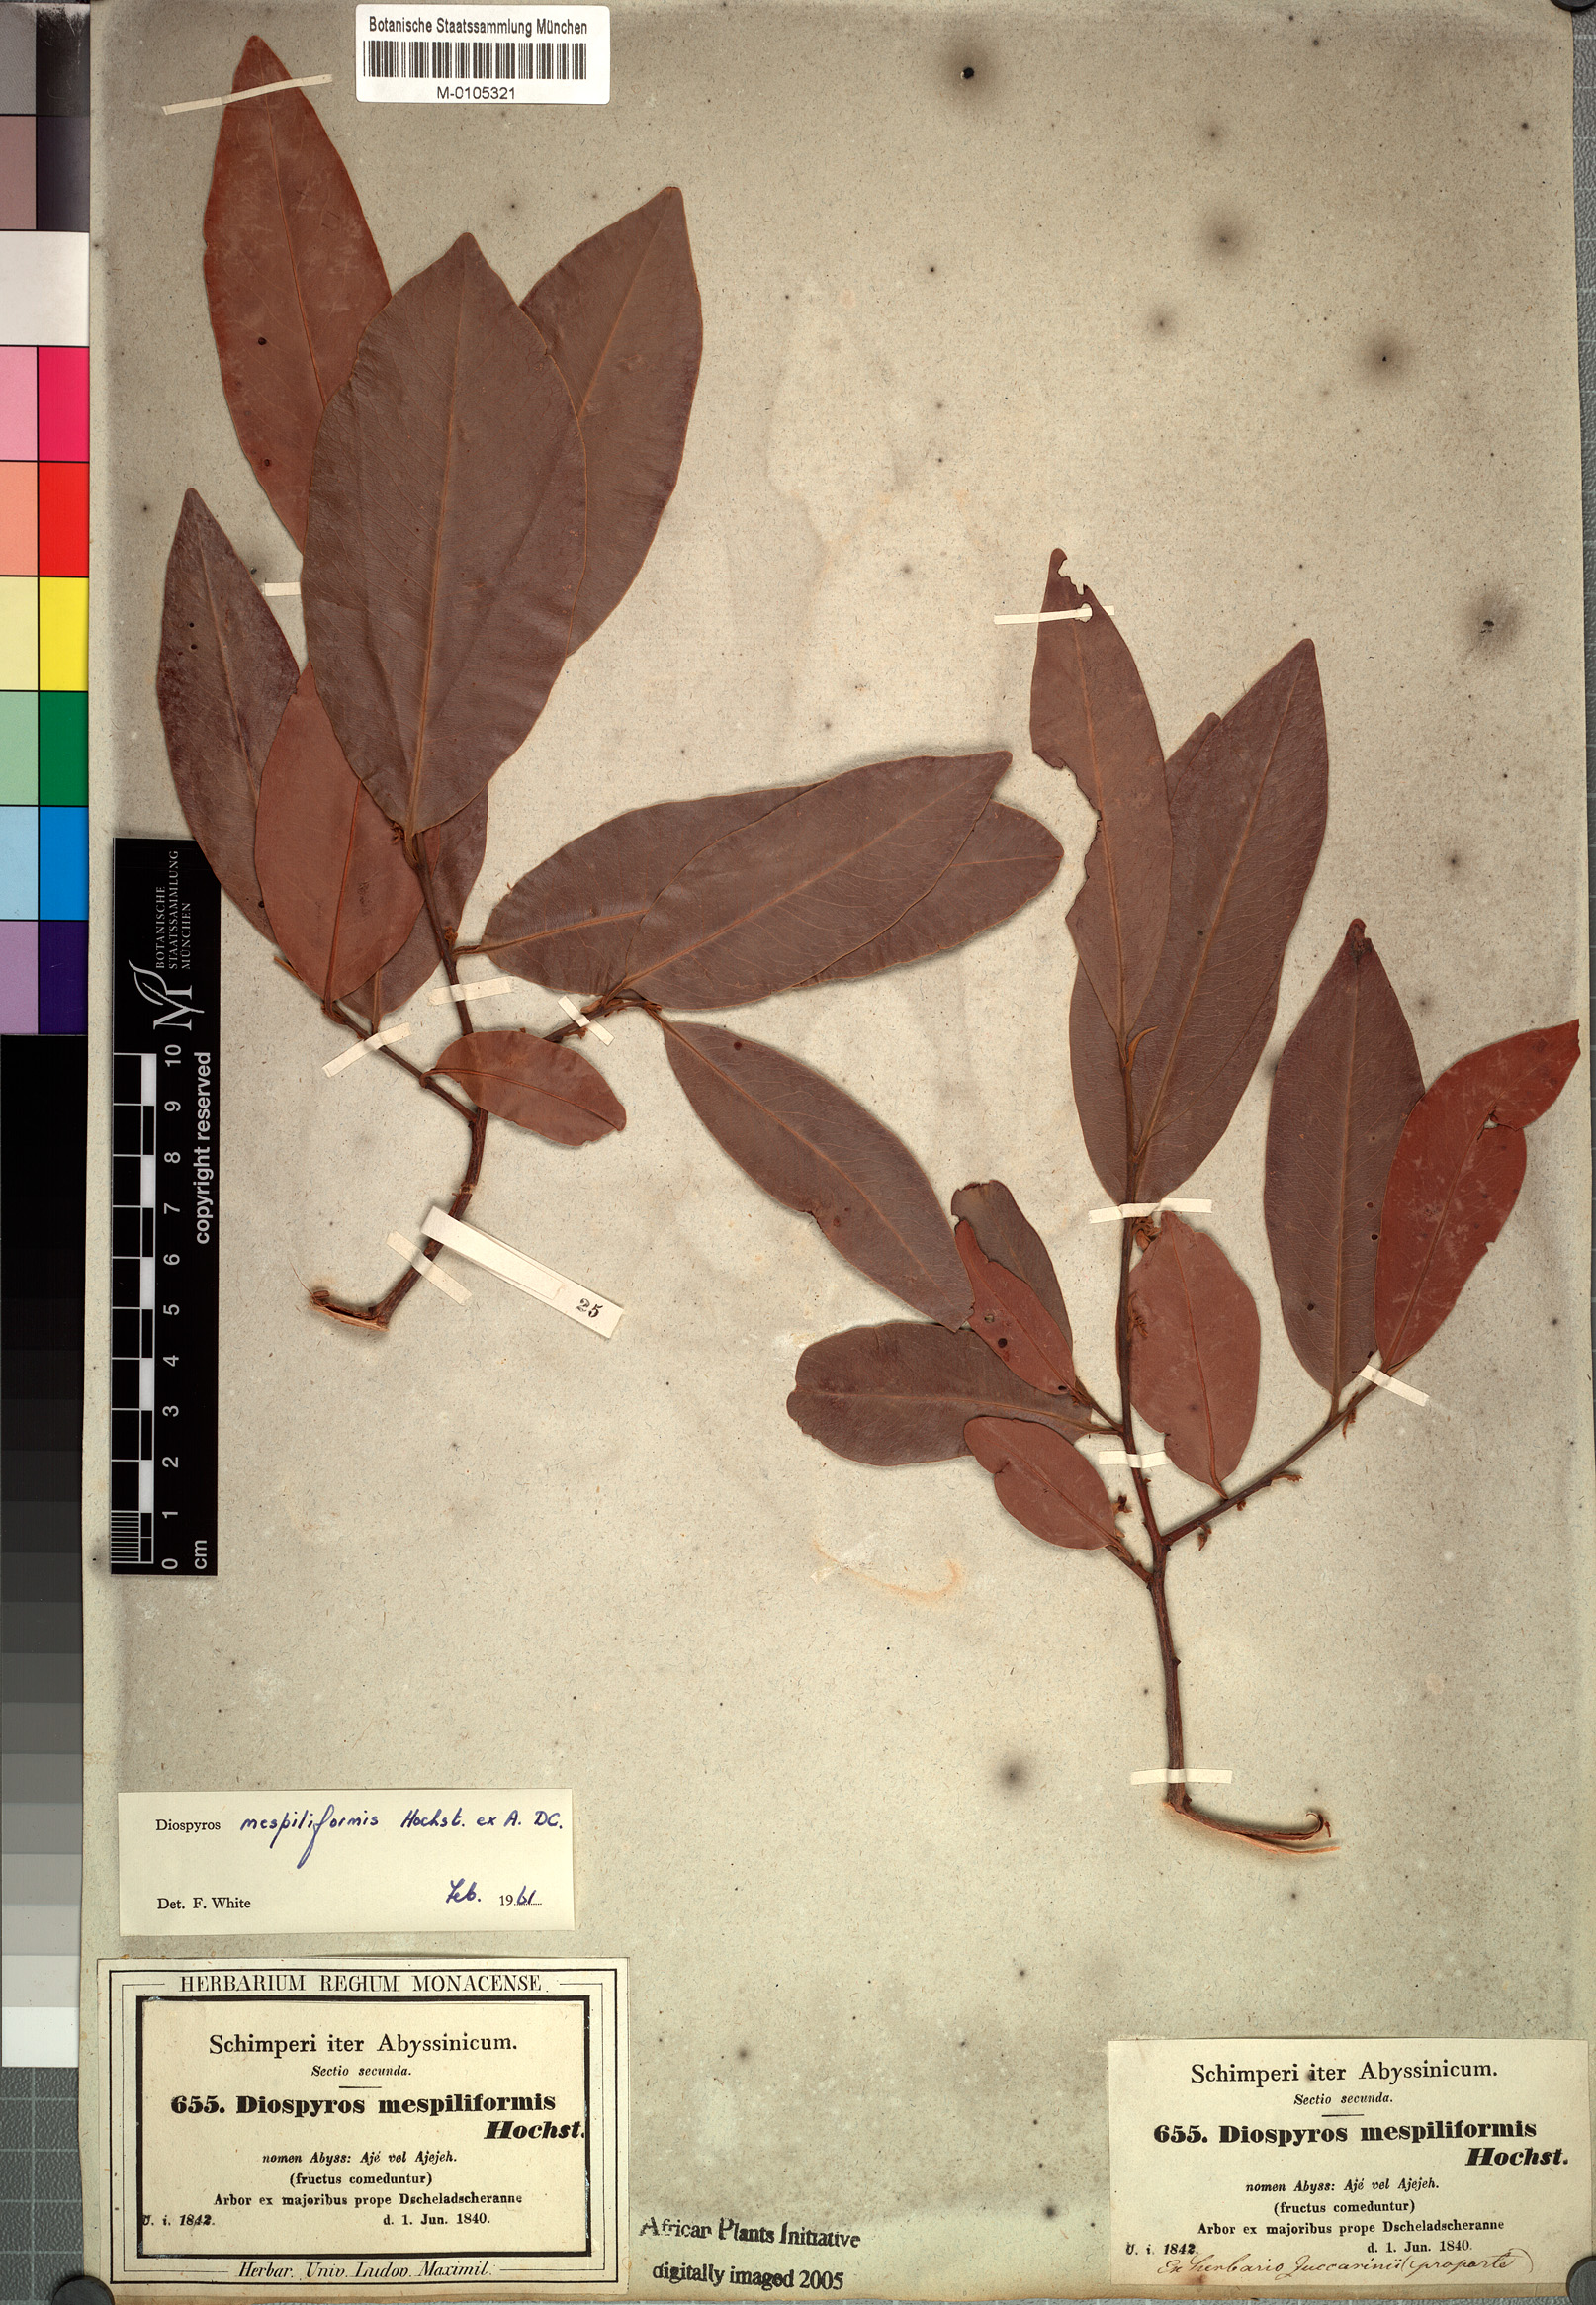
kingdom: Plantae
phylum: Tracheophyta
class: Magnoliopsida
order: Ericales
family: Ebenaceae
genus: Diospyros
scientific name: Diospyros mespiliformis
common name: Ebony diospyros
